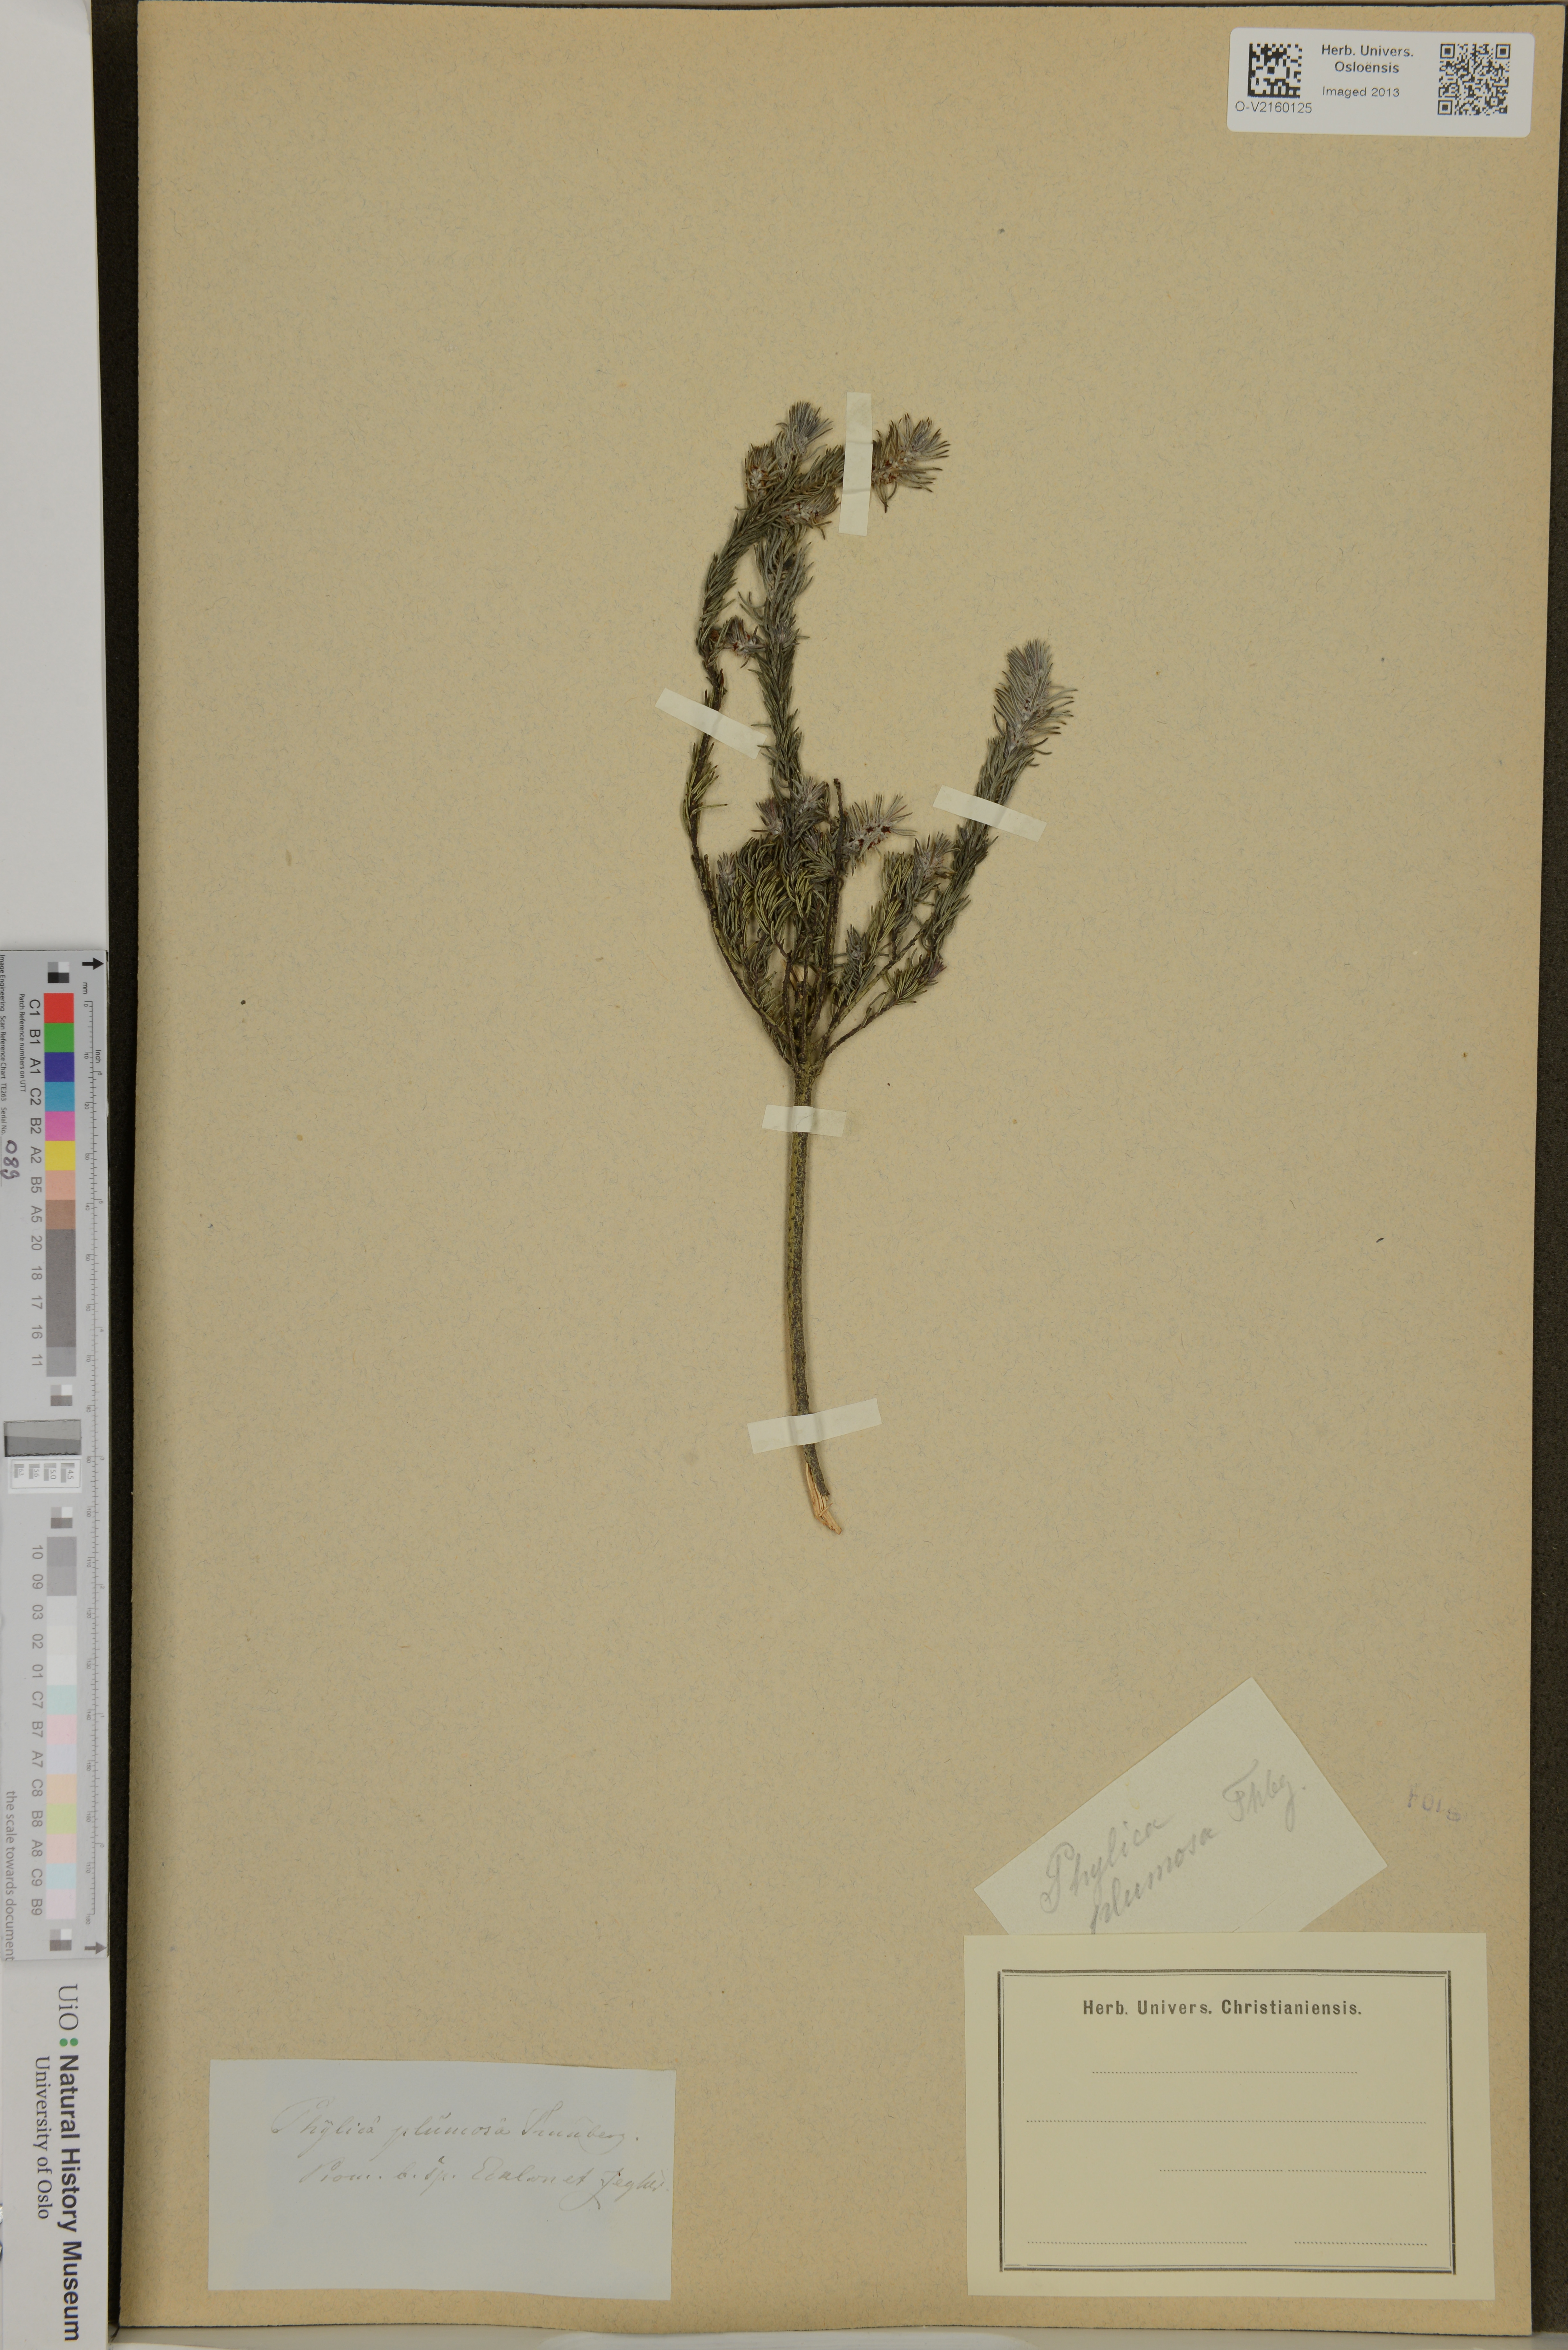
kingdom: Plantae
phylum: Tracheophyta
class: Magnoliopsida
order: Rosales
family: Rhamnaceae
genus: Phylica
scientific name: Phylica plumosa
